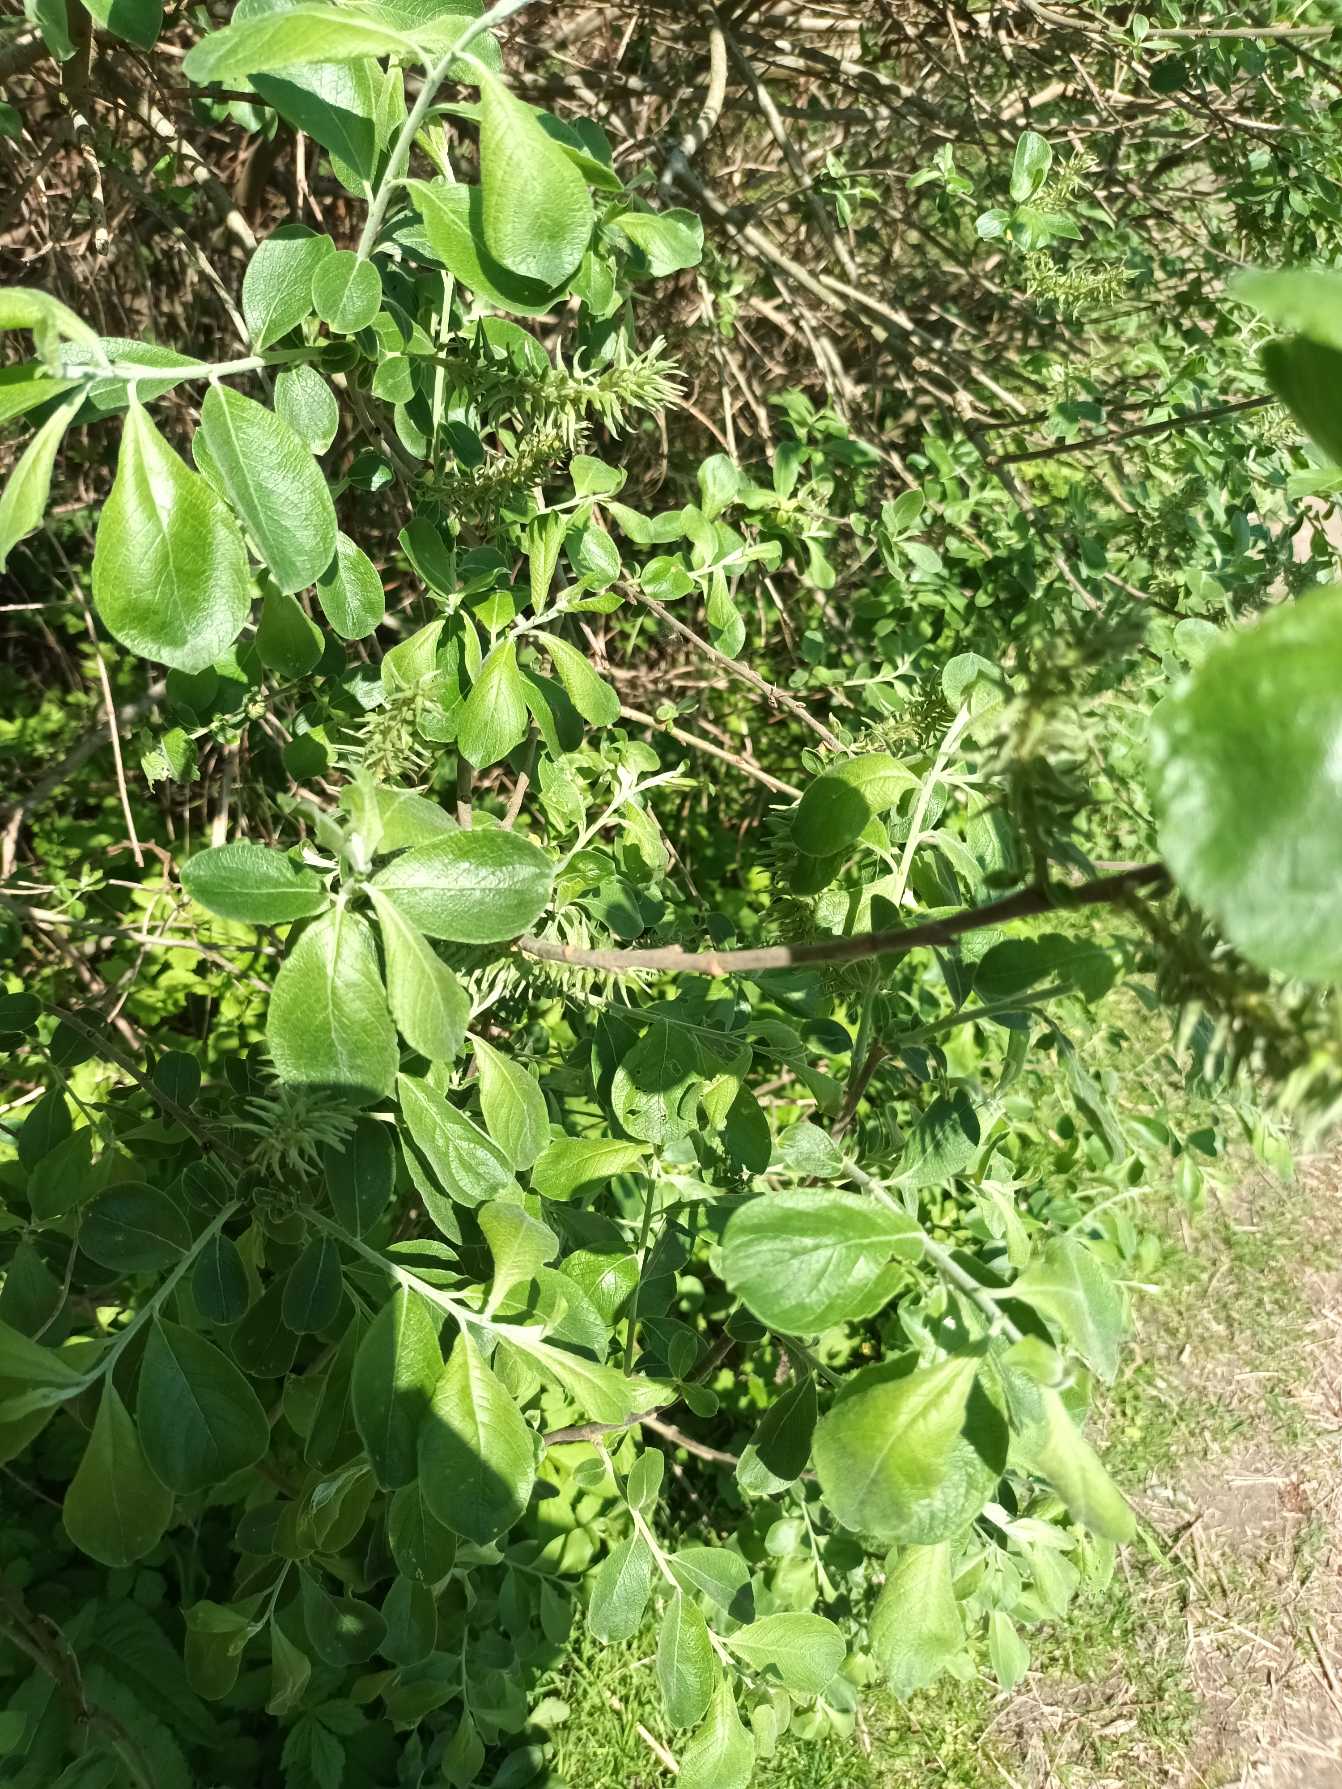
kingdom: Plantae
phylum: Tracheophyta
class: Magnoliopsida
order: Malpighiales
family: Salicaceae
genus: Salix
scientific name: Salix cinerea
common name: Grå-pil
